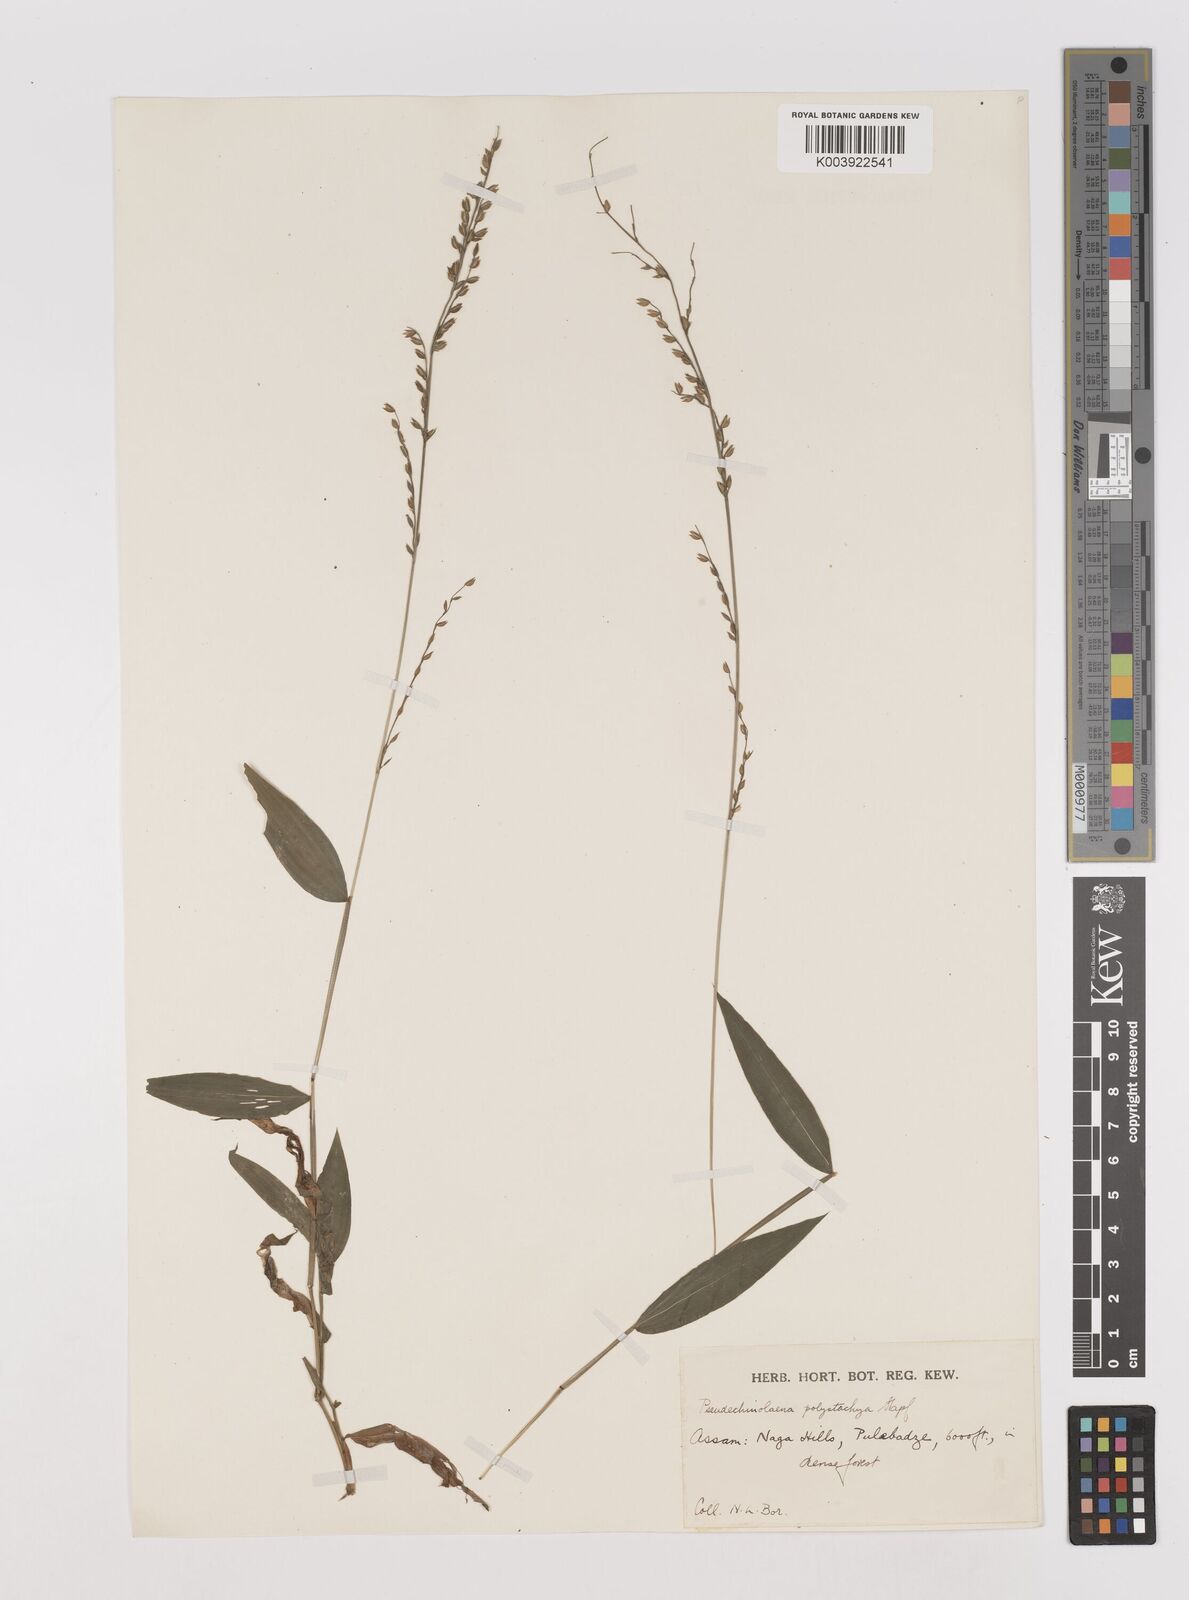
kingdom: Plantae
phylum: Tracheophyta
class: Liliopsida
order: Poales
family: Poaceae
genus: Pseudechinolaena
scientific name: Pseudechinolaena polystachya
